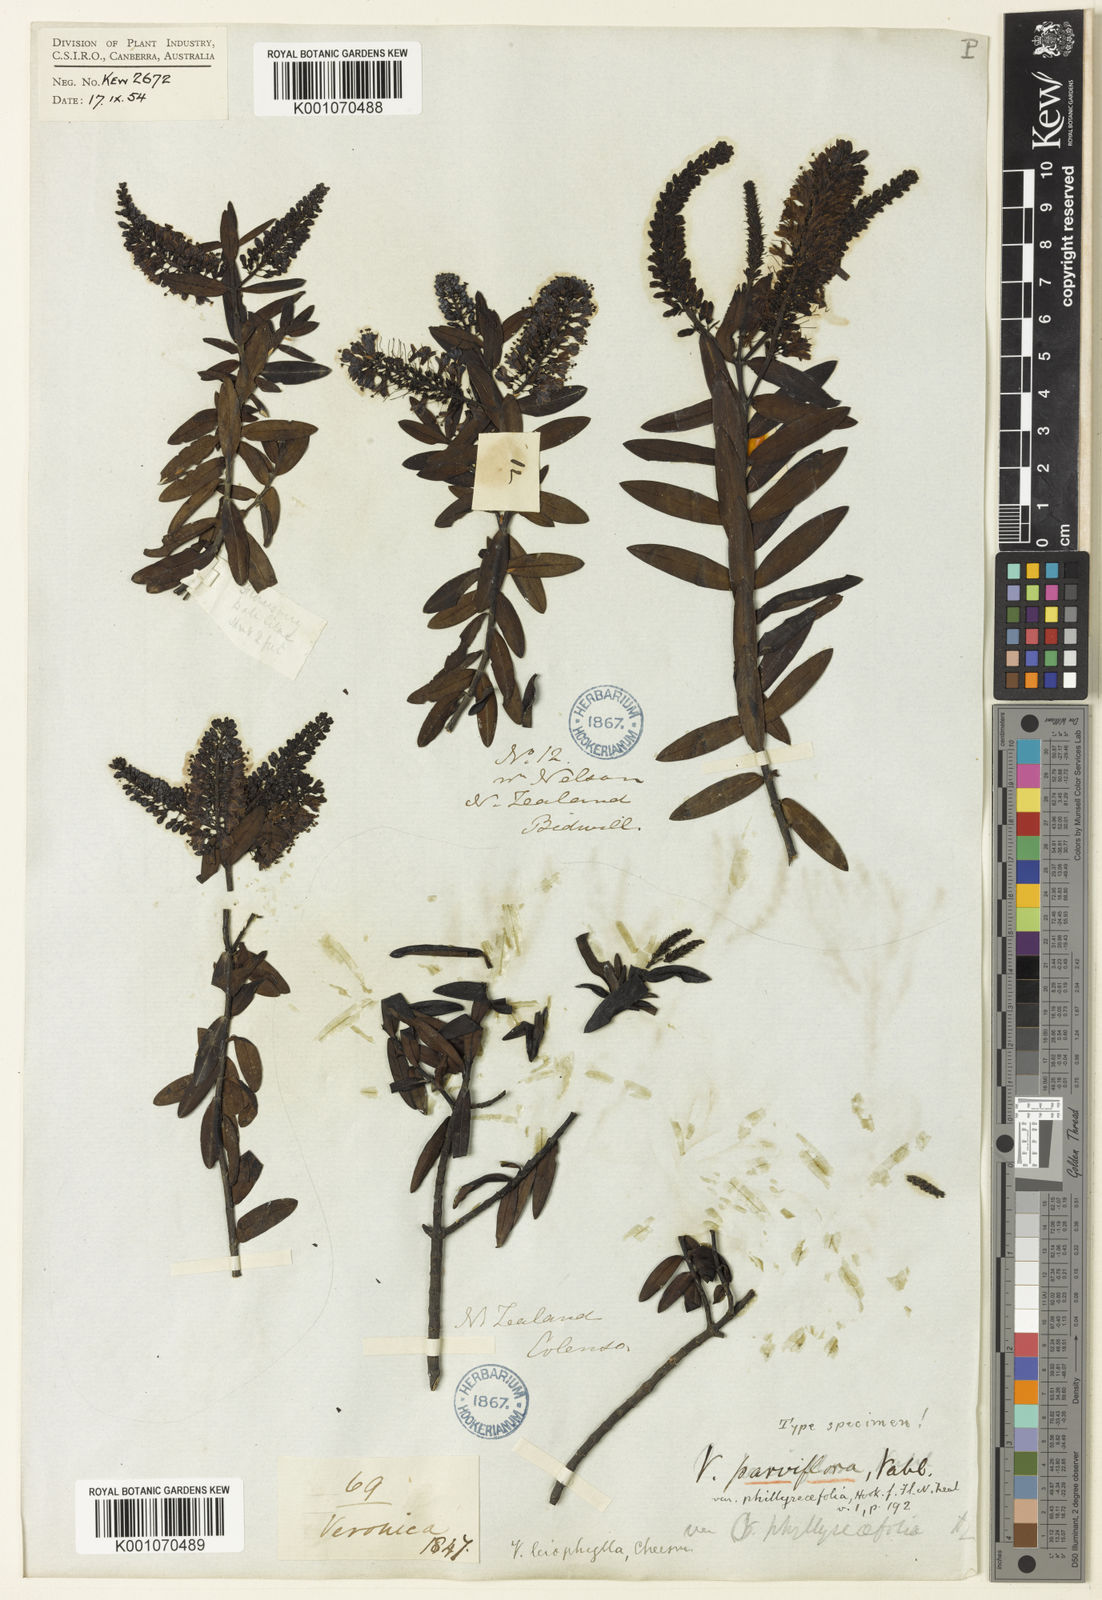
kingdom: Plantae
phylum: Tracheophyta
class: Magnoliopsida
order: Lamiales
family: Plantaginaceae
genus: Veronica
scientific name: Veronica leiophylla
